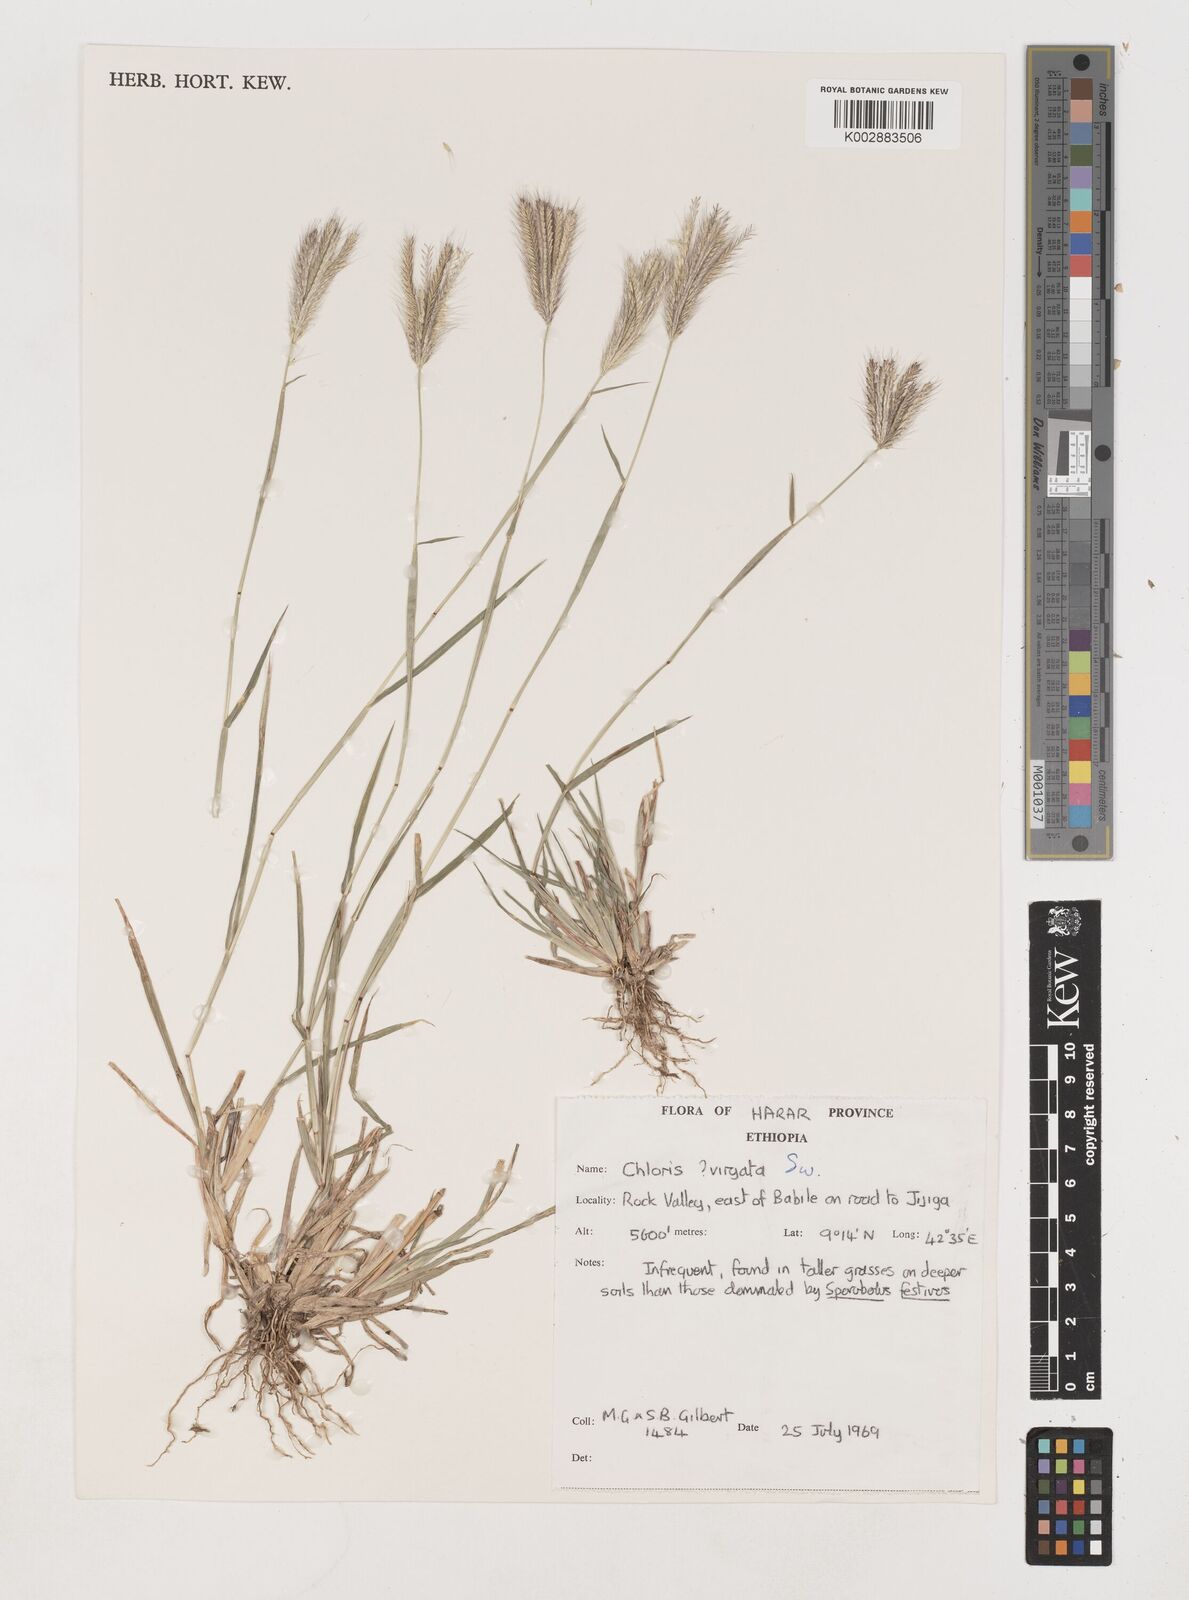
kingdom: Plantae
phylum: Tracheophyta
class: Liliopsida
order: Poales
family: Poaceae
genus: Chloris
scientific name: Chloris virgata
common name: Feathery rhodes-grass
